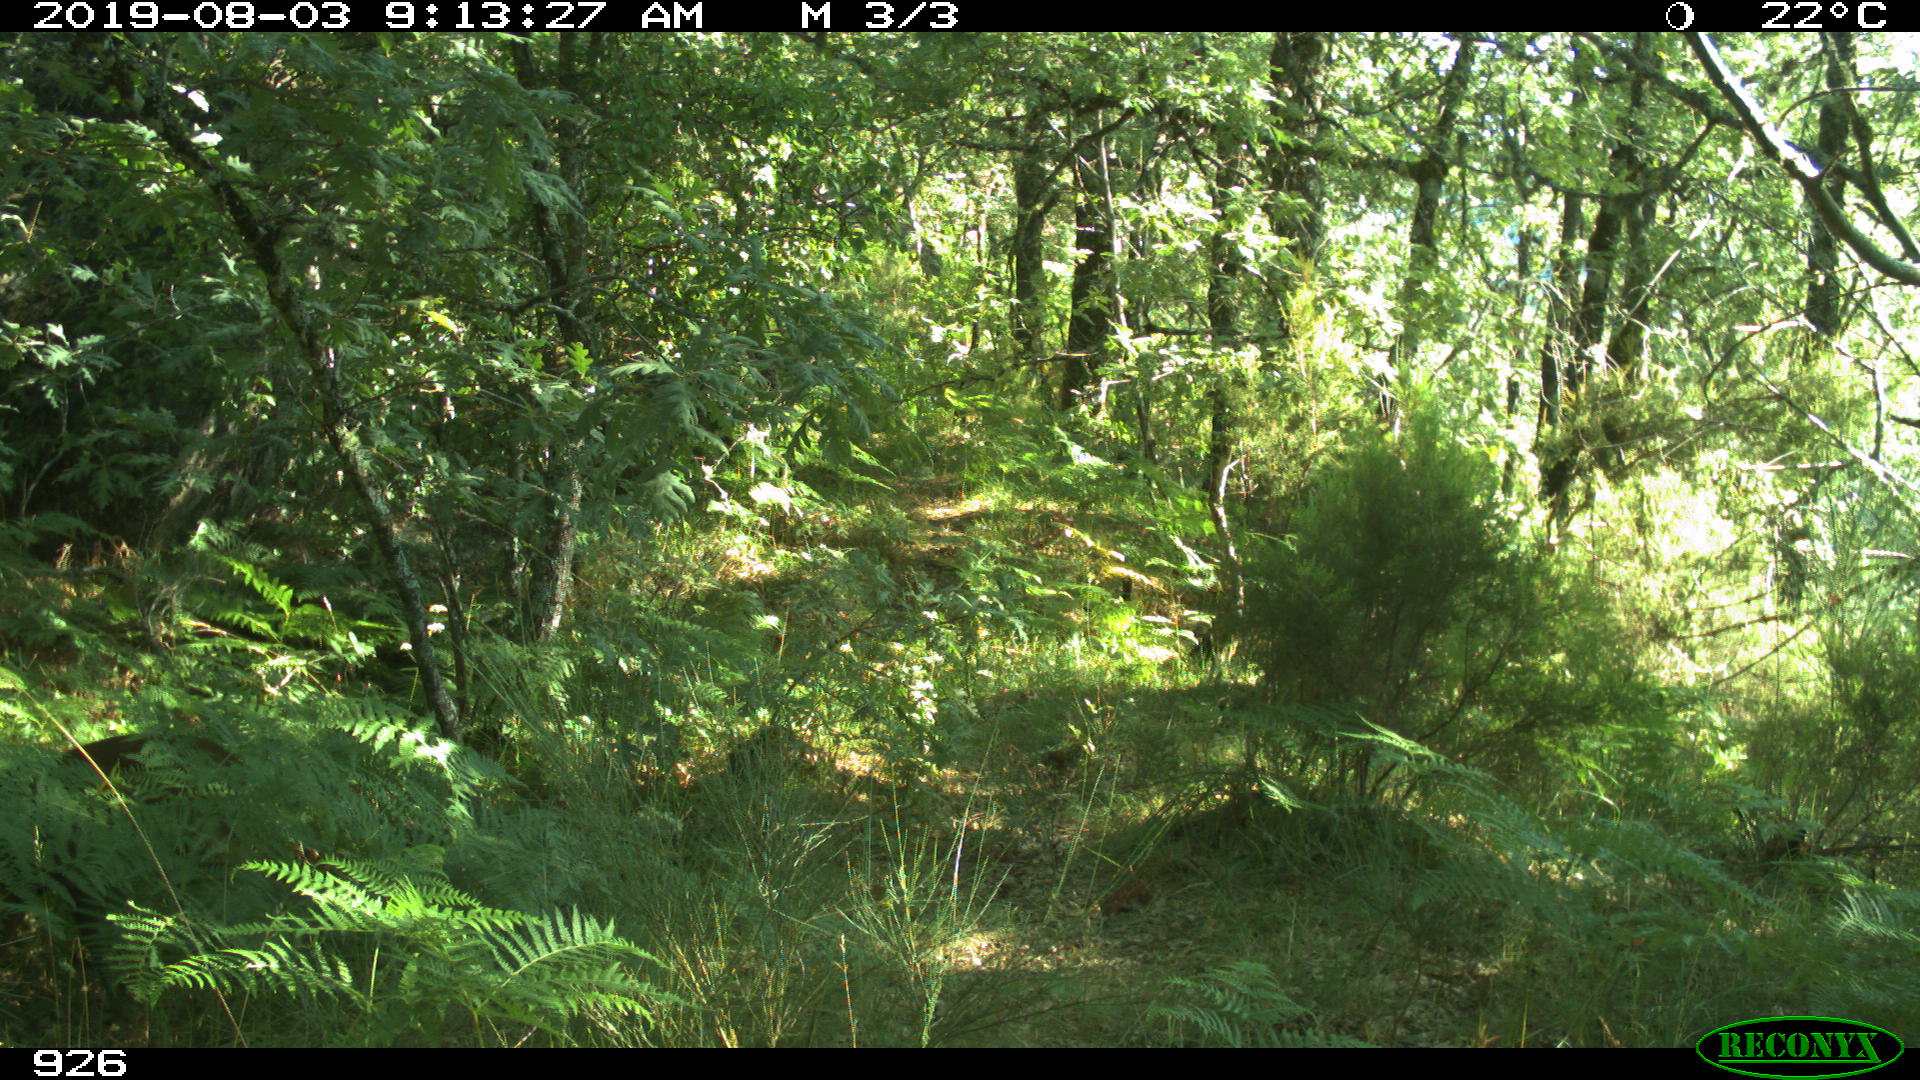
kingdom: Animalia
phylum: Chordata
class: Mammalia
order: Artiodactyla
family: Cervidae
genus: Capreolus
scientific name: Capreolus capreolus
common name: Western roe deer
